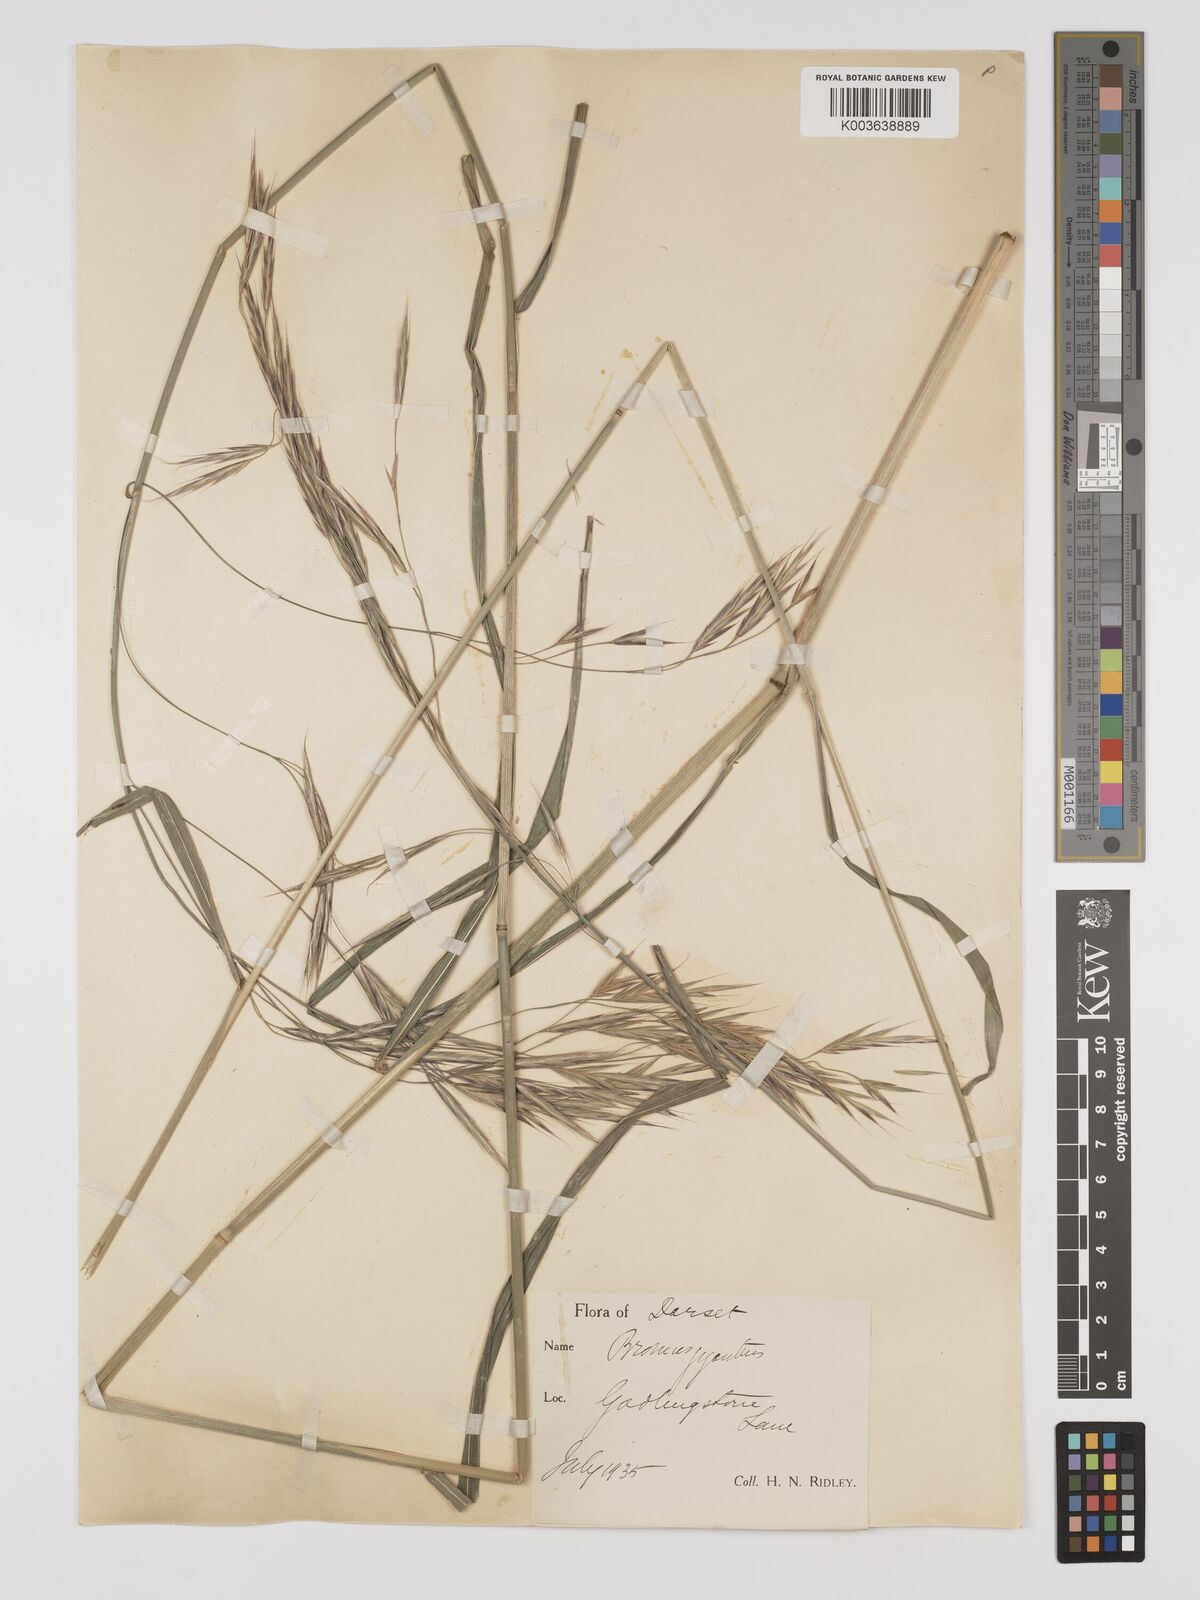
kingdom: Plantae
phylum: Tracheophyta
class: Liliopsida
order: Poales
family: Poaceae
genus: Brachypodium
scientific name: Brachypodium retusum
